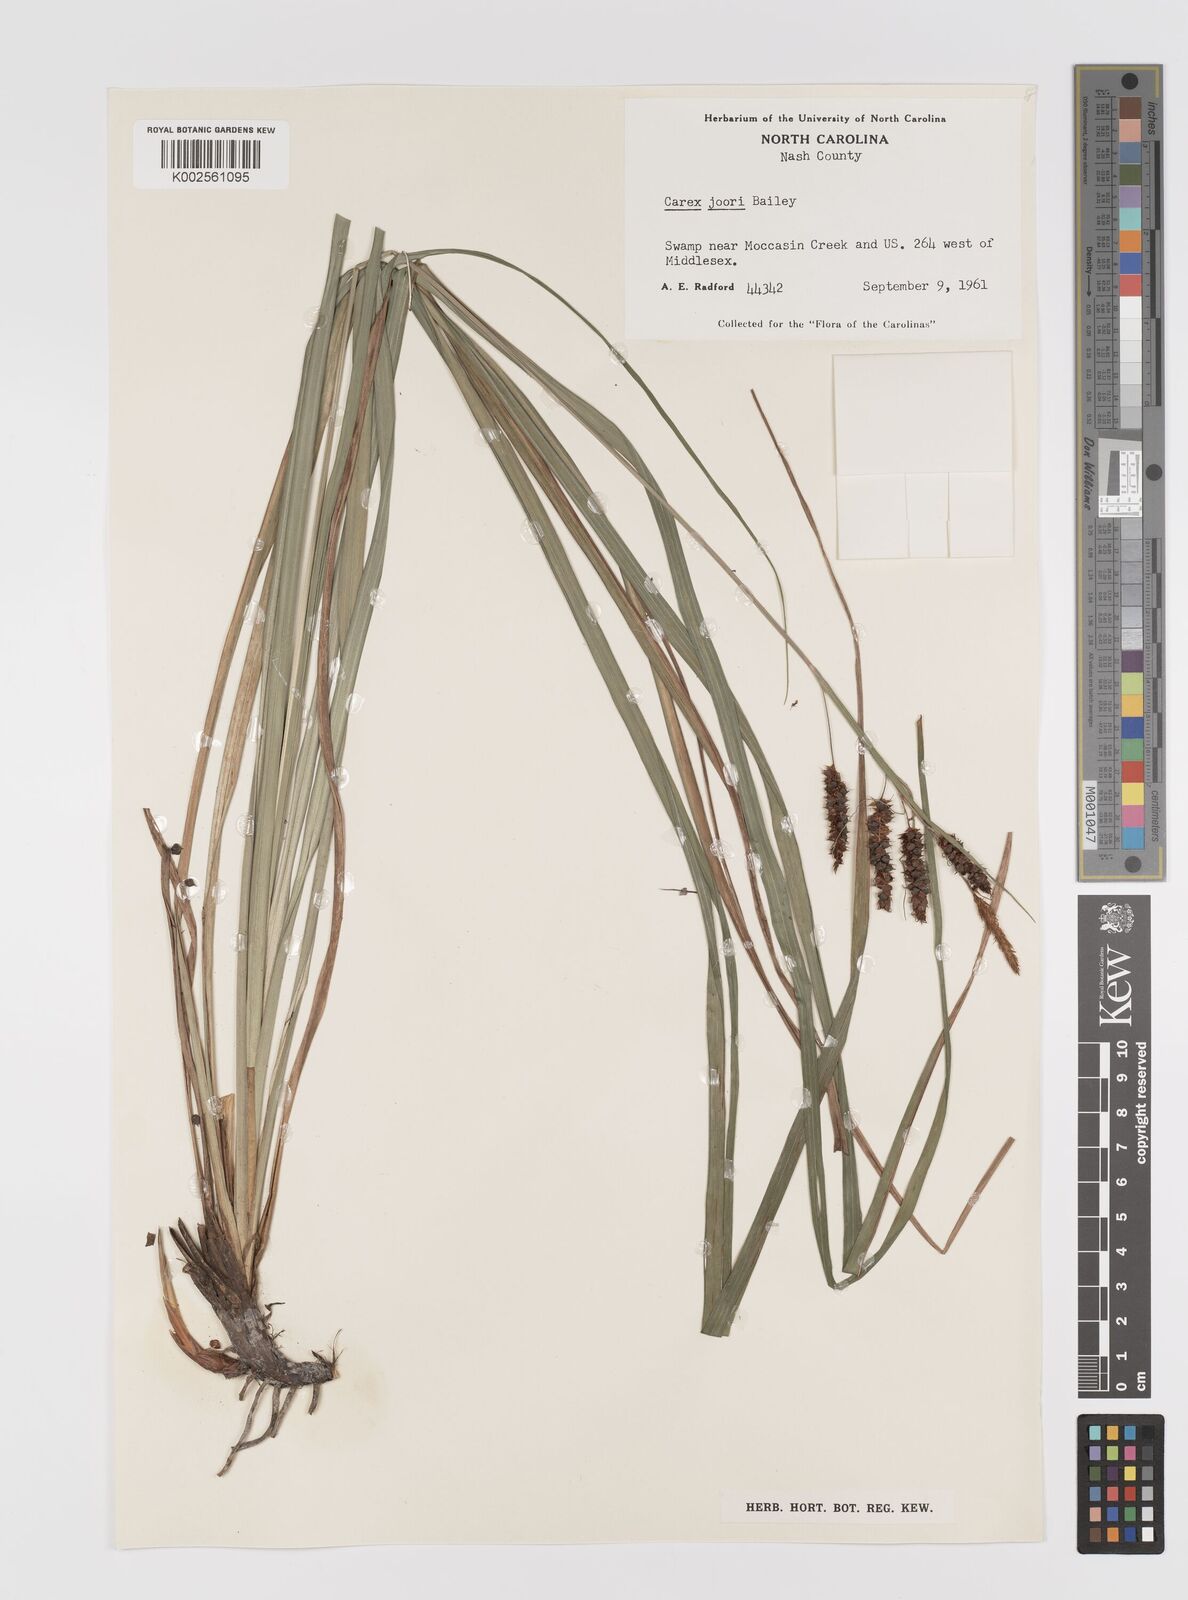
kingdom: Plantae
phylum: Tracheophyta
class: Liliopsida
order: Poales
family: Cyperaceae
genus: Carex
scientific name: Carex joorii
